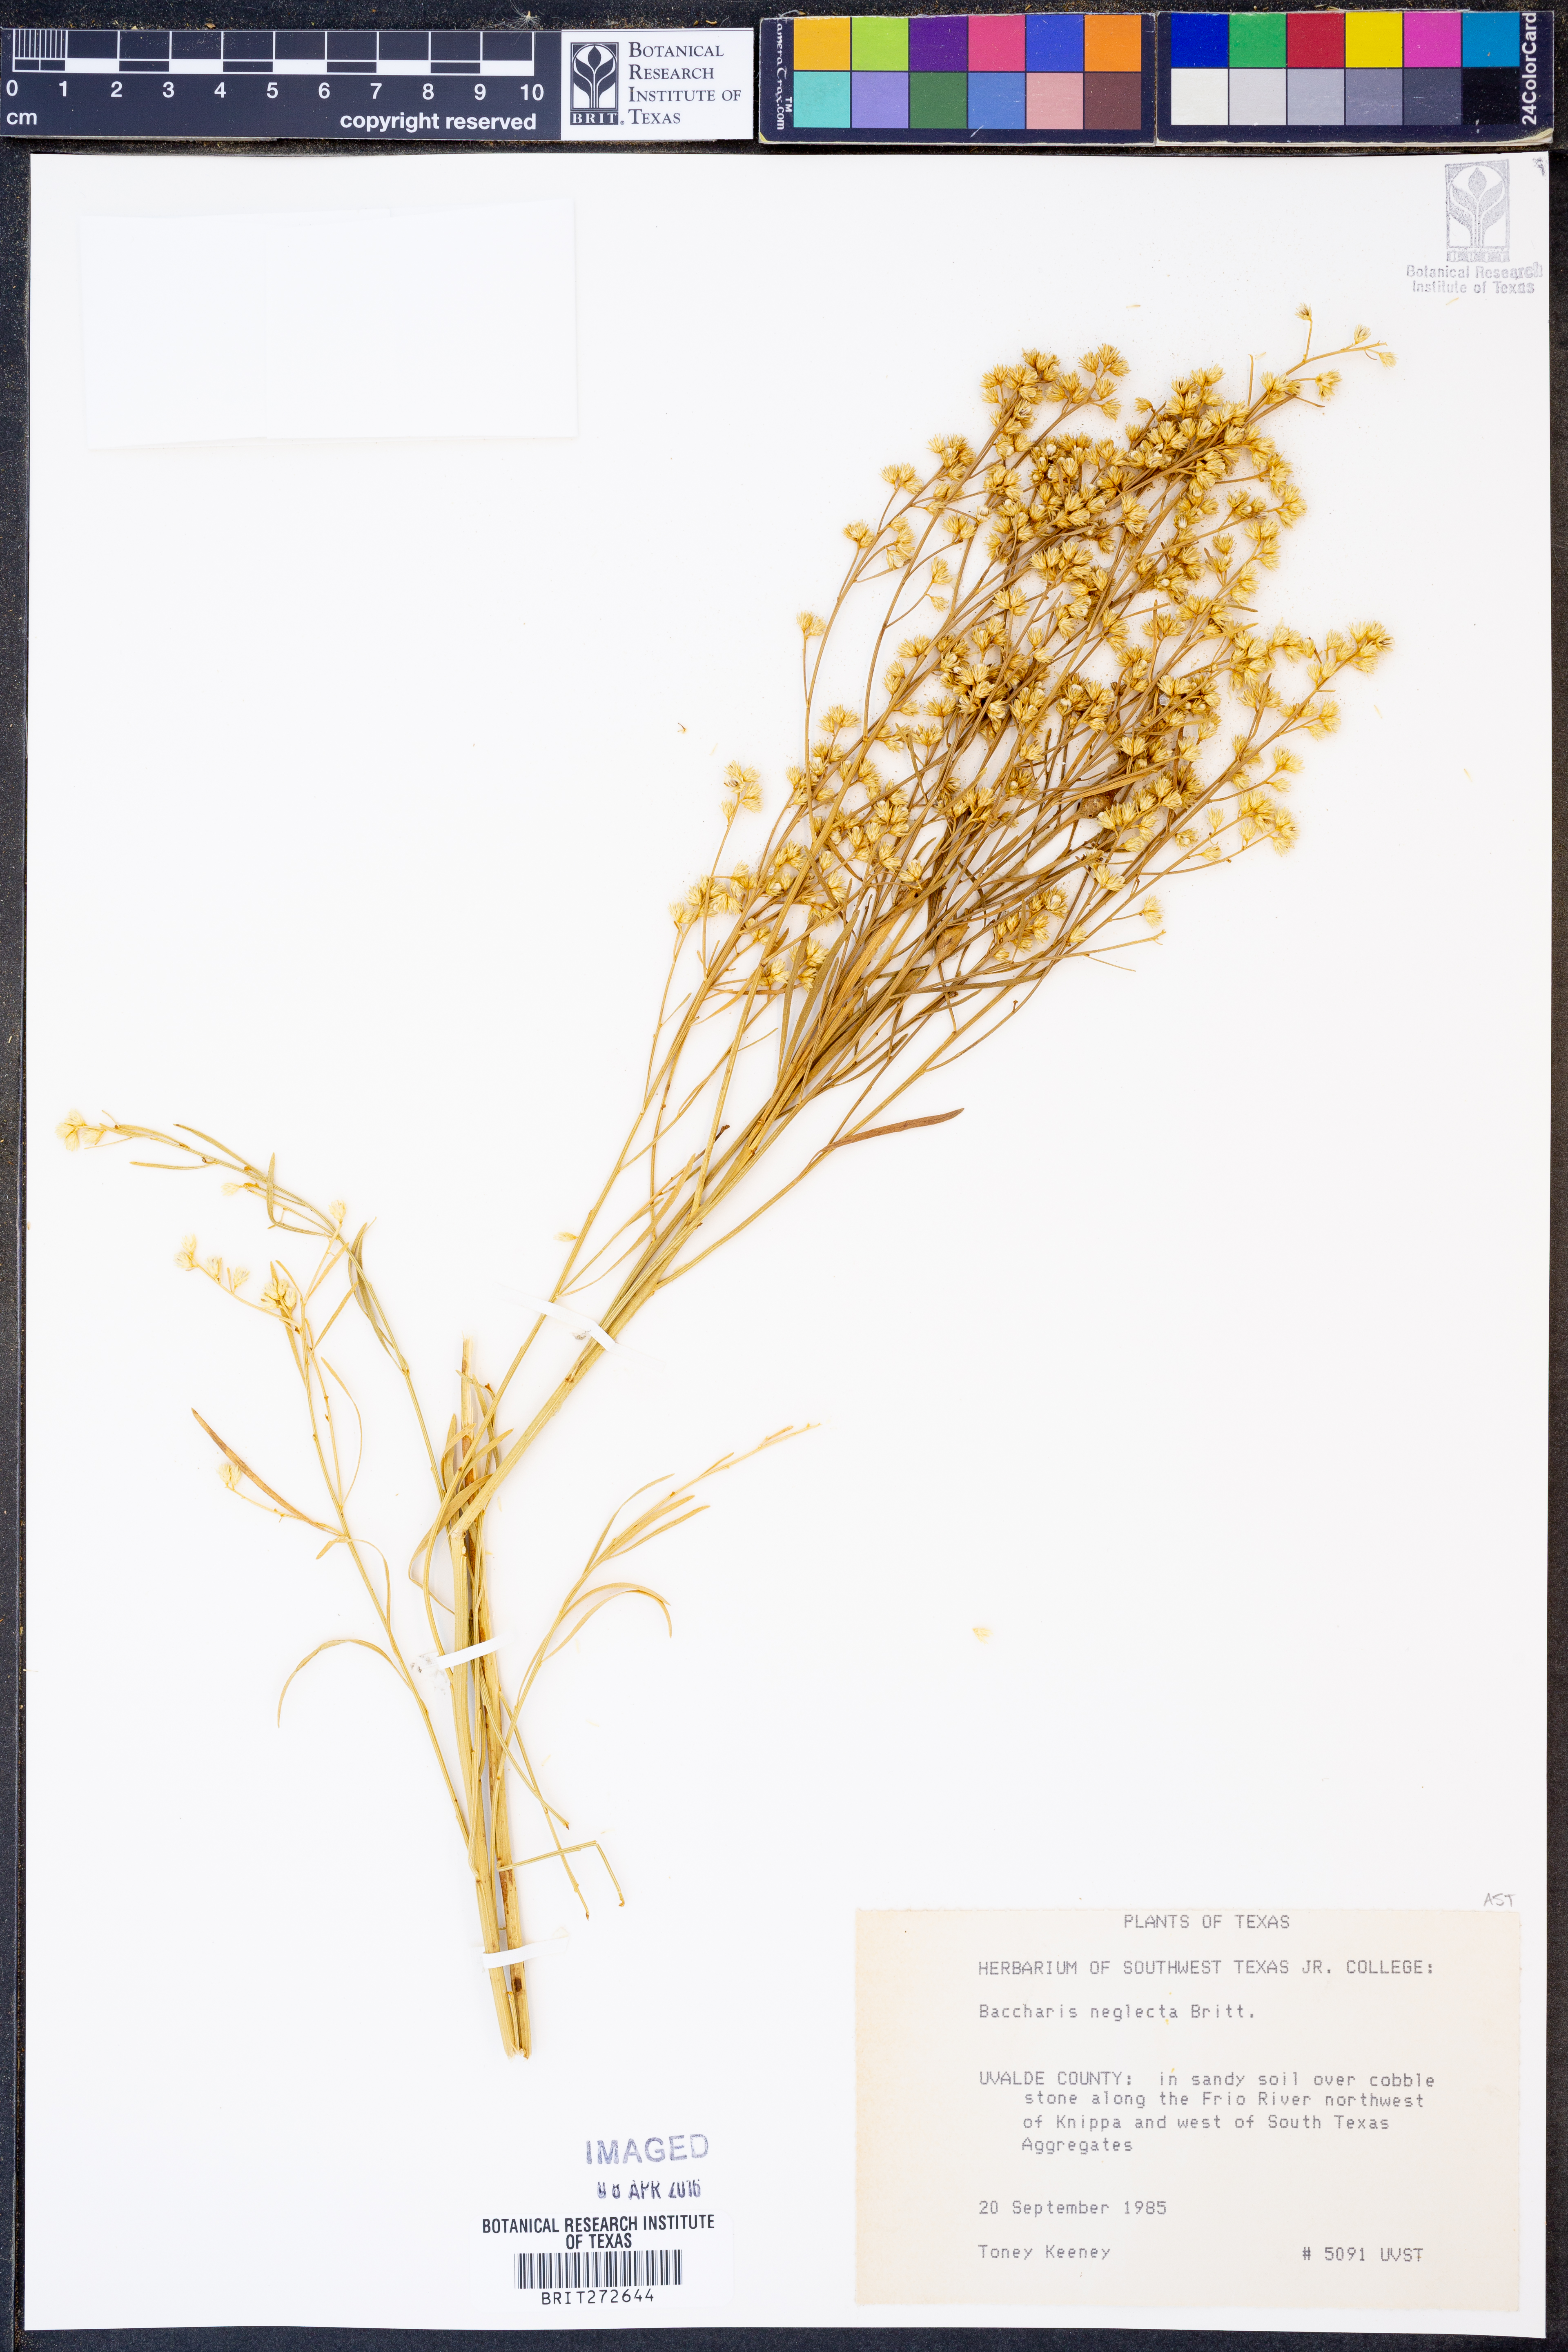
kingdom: Plantae
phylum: Tracheophyta
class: Magnoliopsida
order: Asterales
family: Asteraceae
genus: Baccharis
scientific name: Baccharis neglecta
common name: Roosevelt-weed
